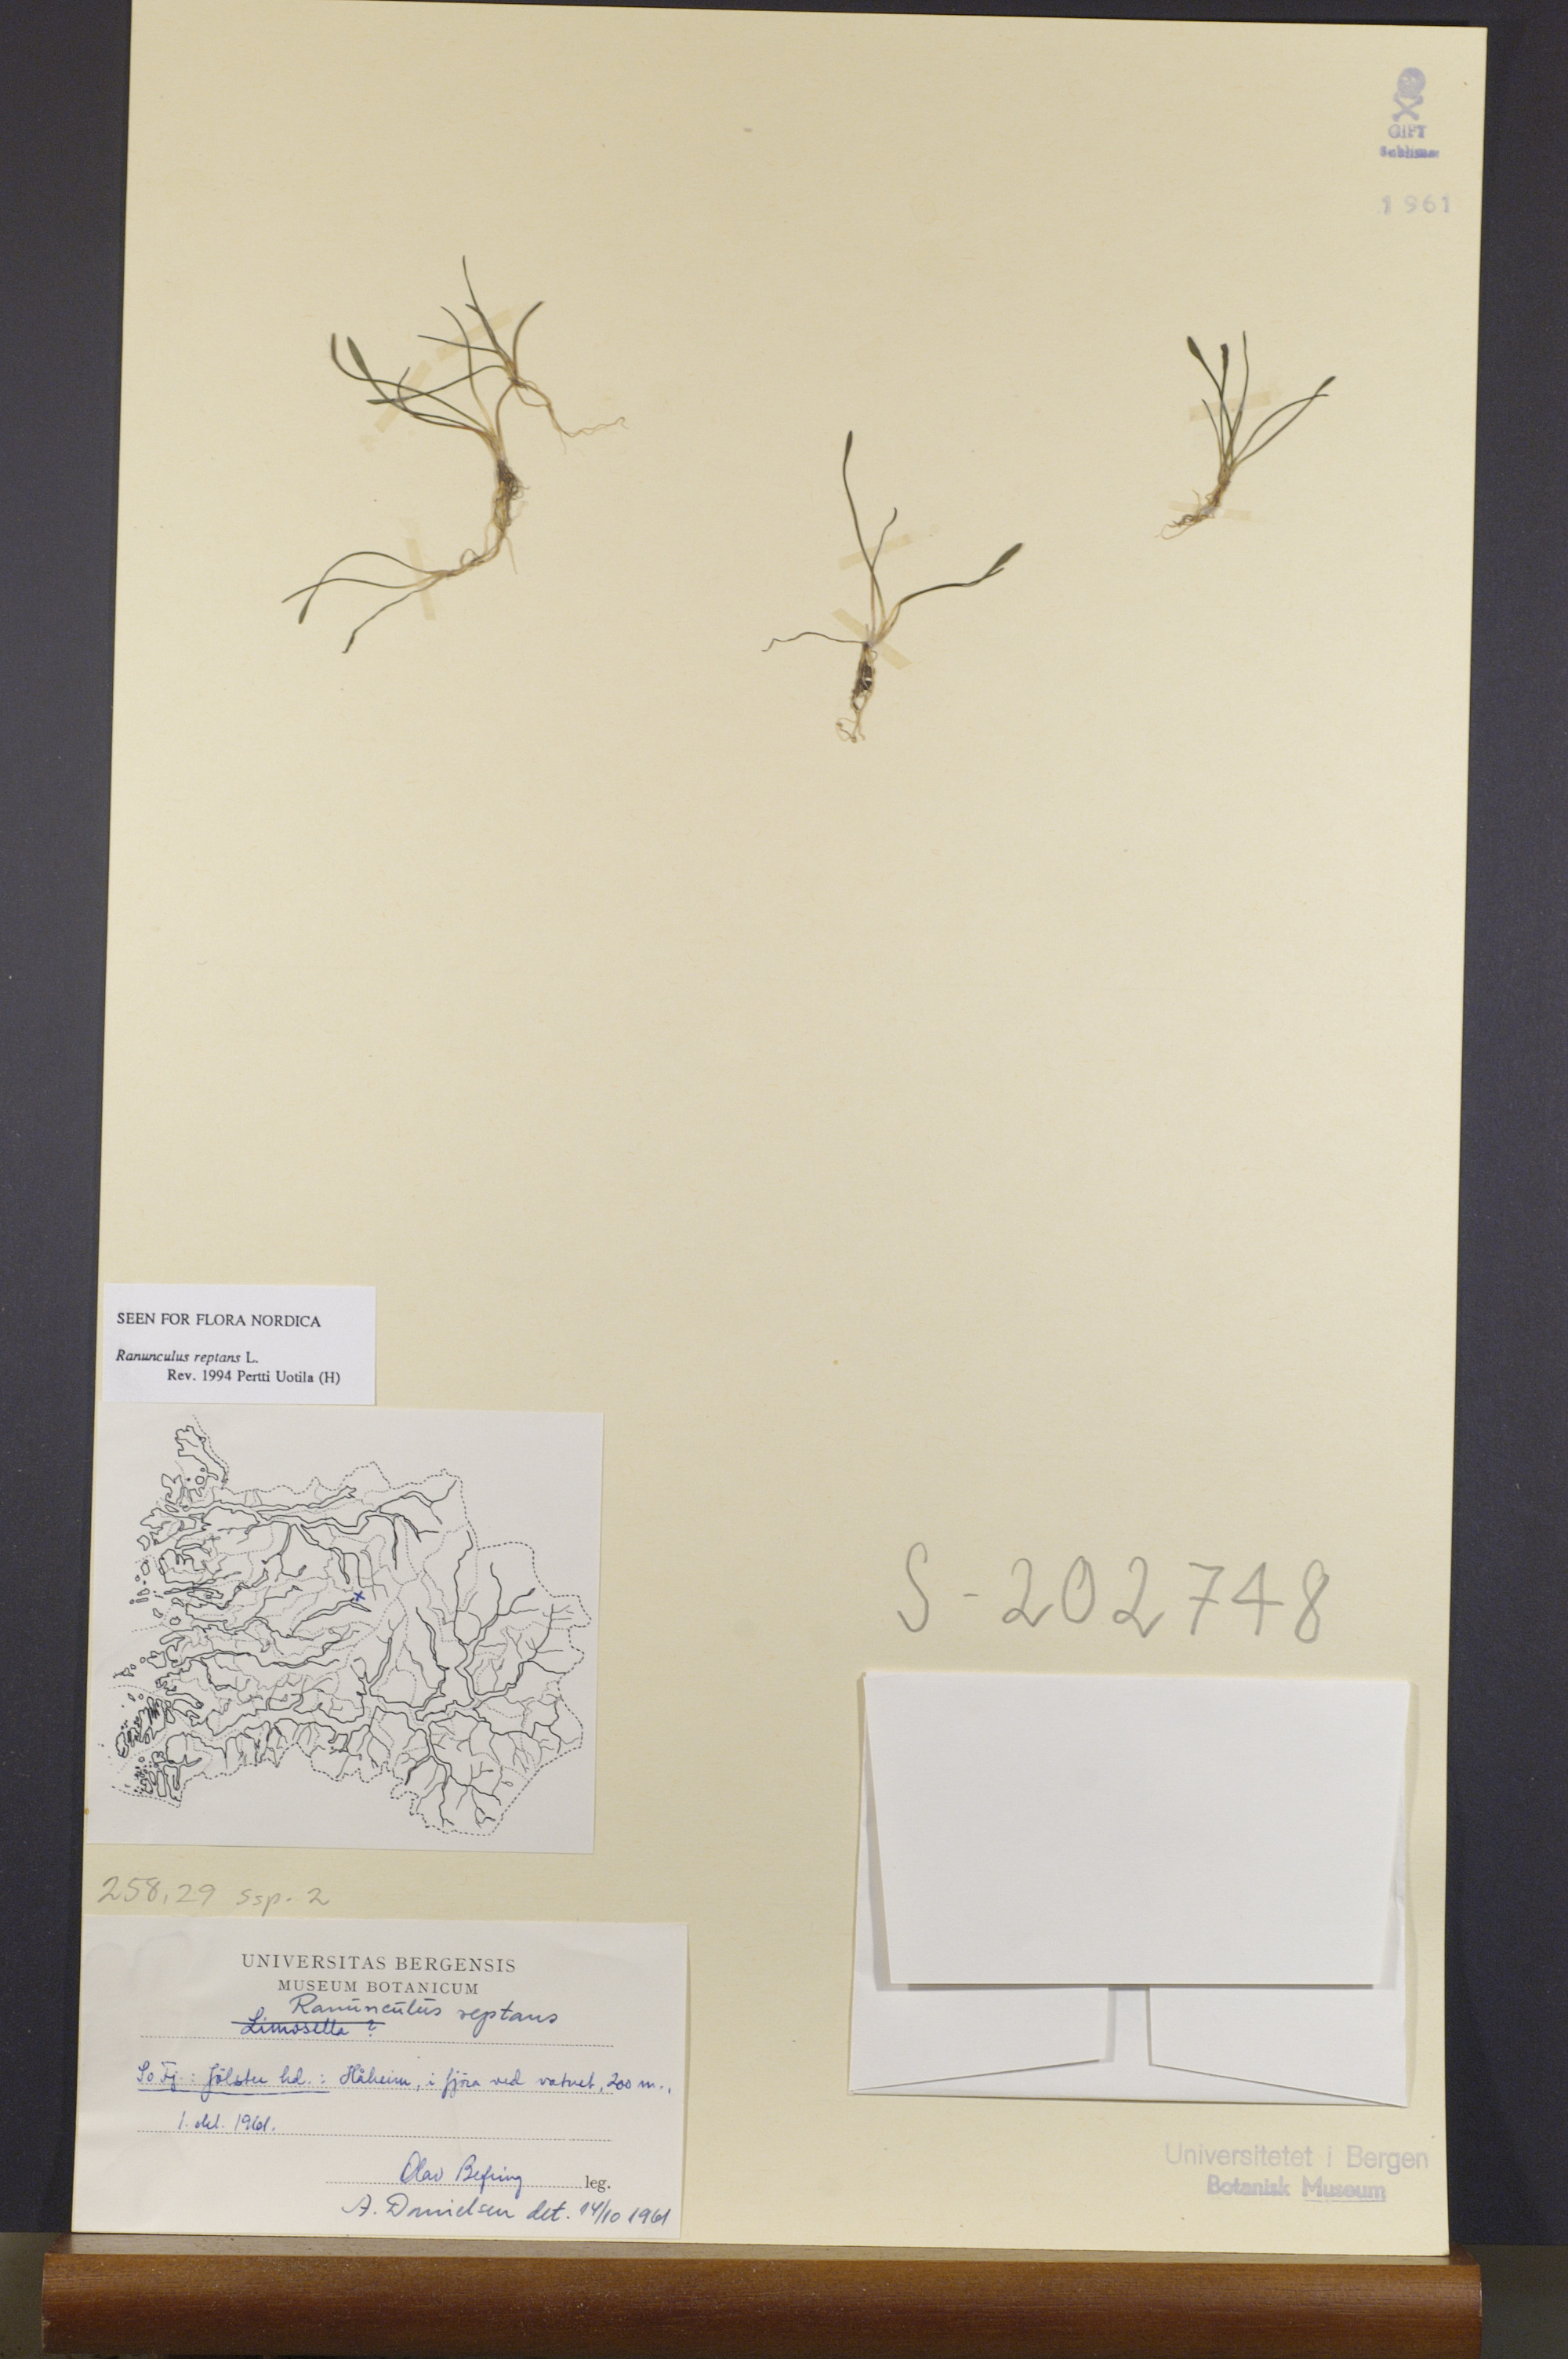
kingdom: Plantae
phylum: Tracheophyta
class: Magnoliopsida
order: Ranunculales
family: Ranunculaceae
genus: Ranunculus
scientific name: Ranunculus reptans
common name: Creeping spearwort
